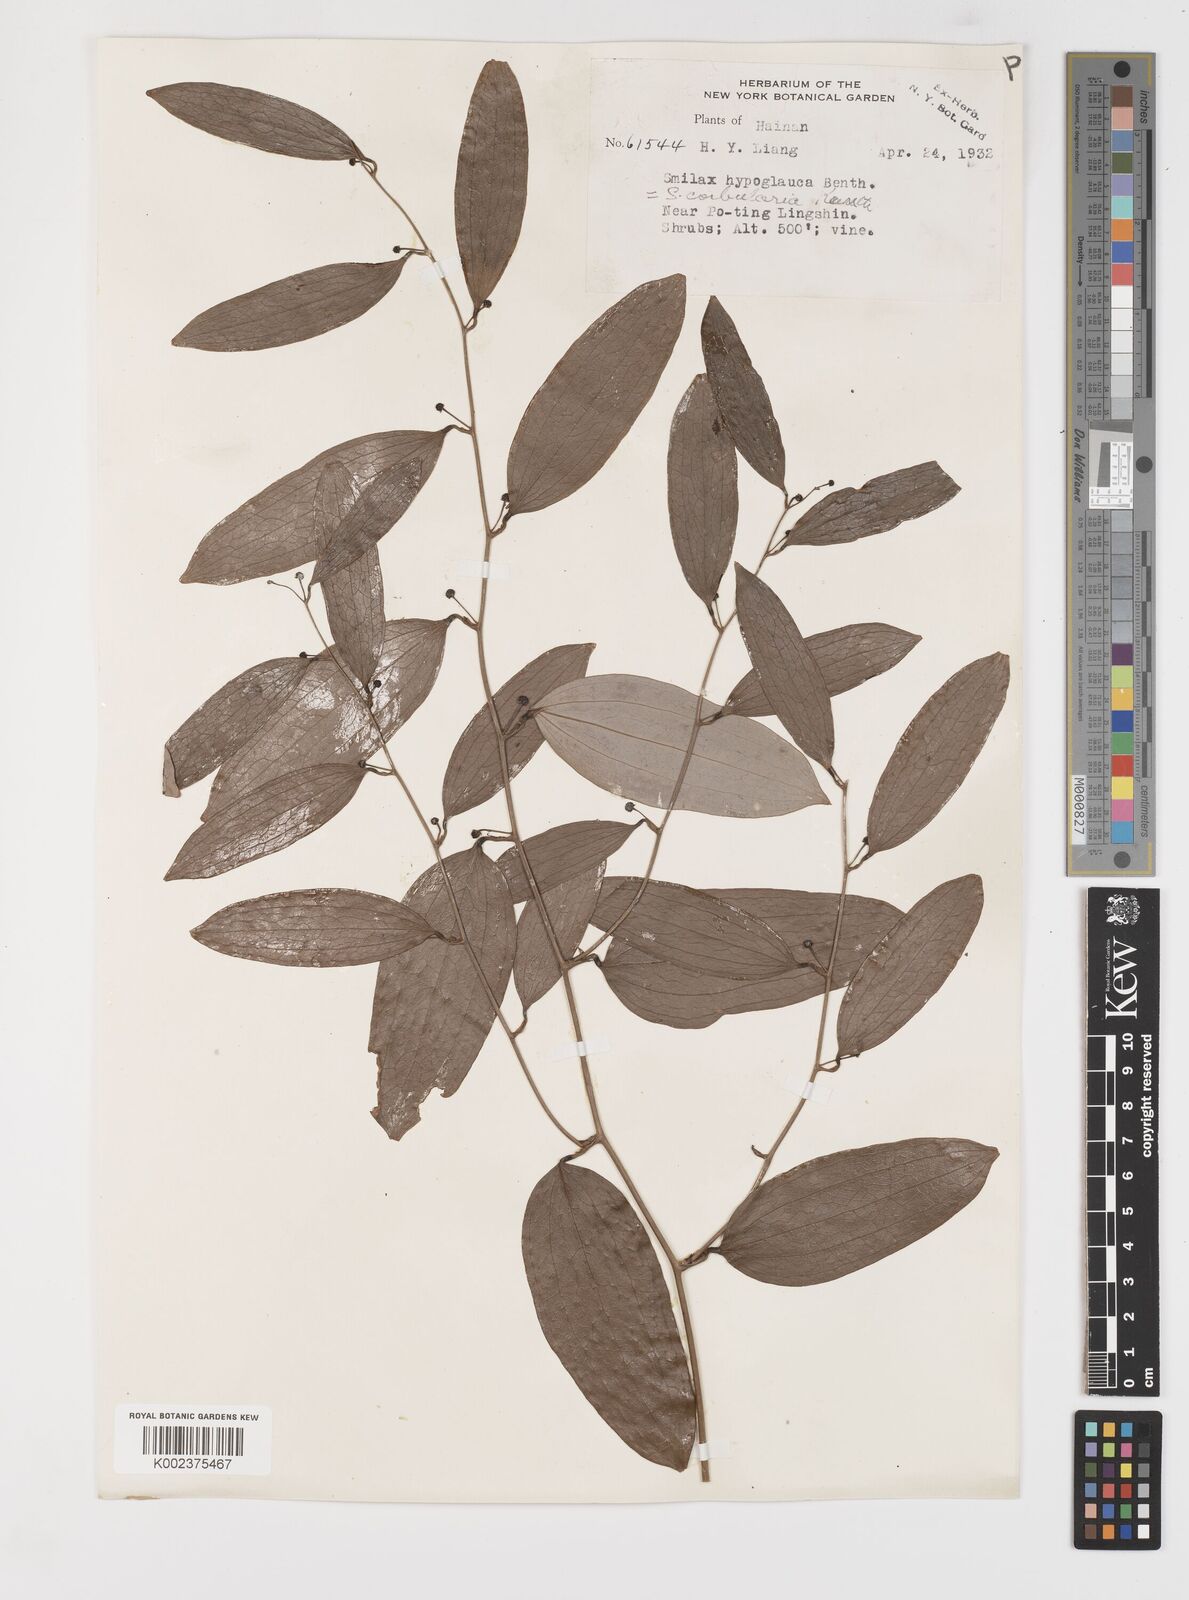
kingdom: Plantae
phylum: Tracheophyta
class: Liliopsida
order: Liliales
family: Smilacaceae
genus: Smilax
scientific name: Smilax hypoglauca
